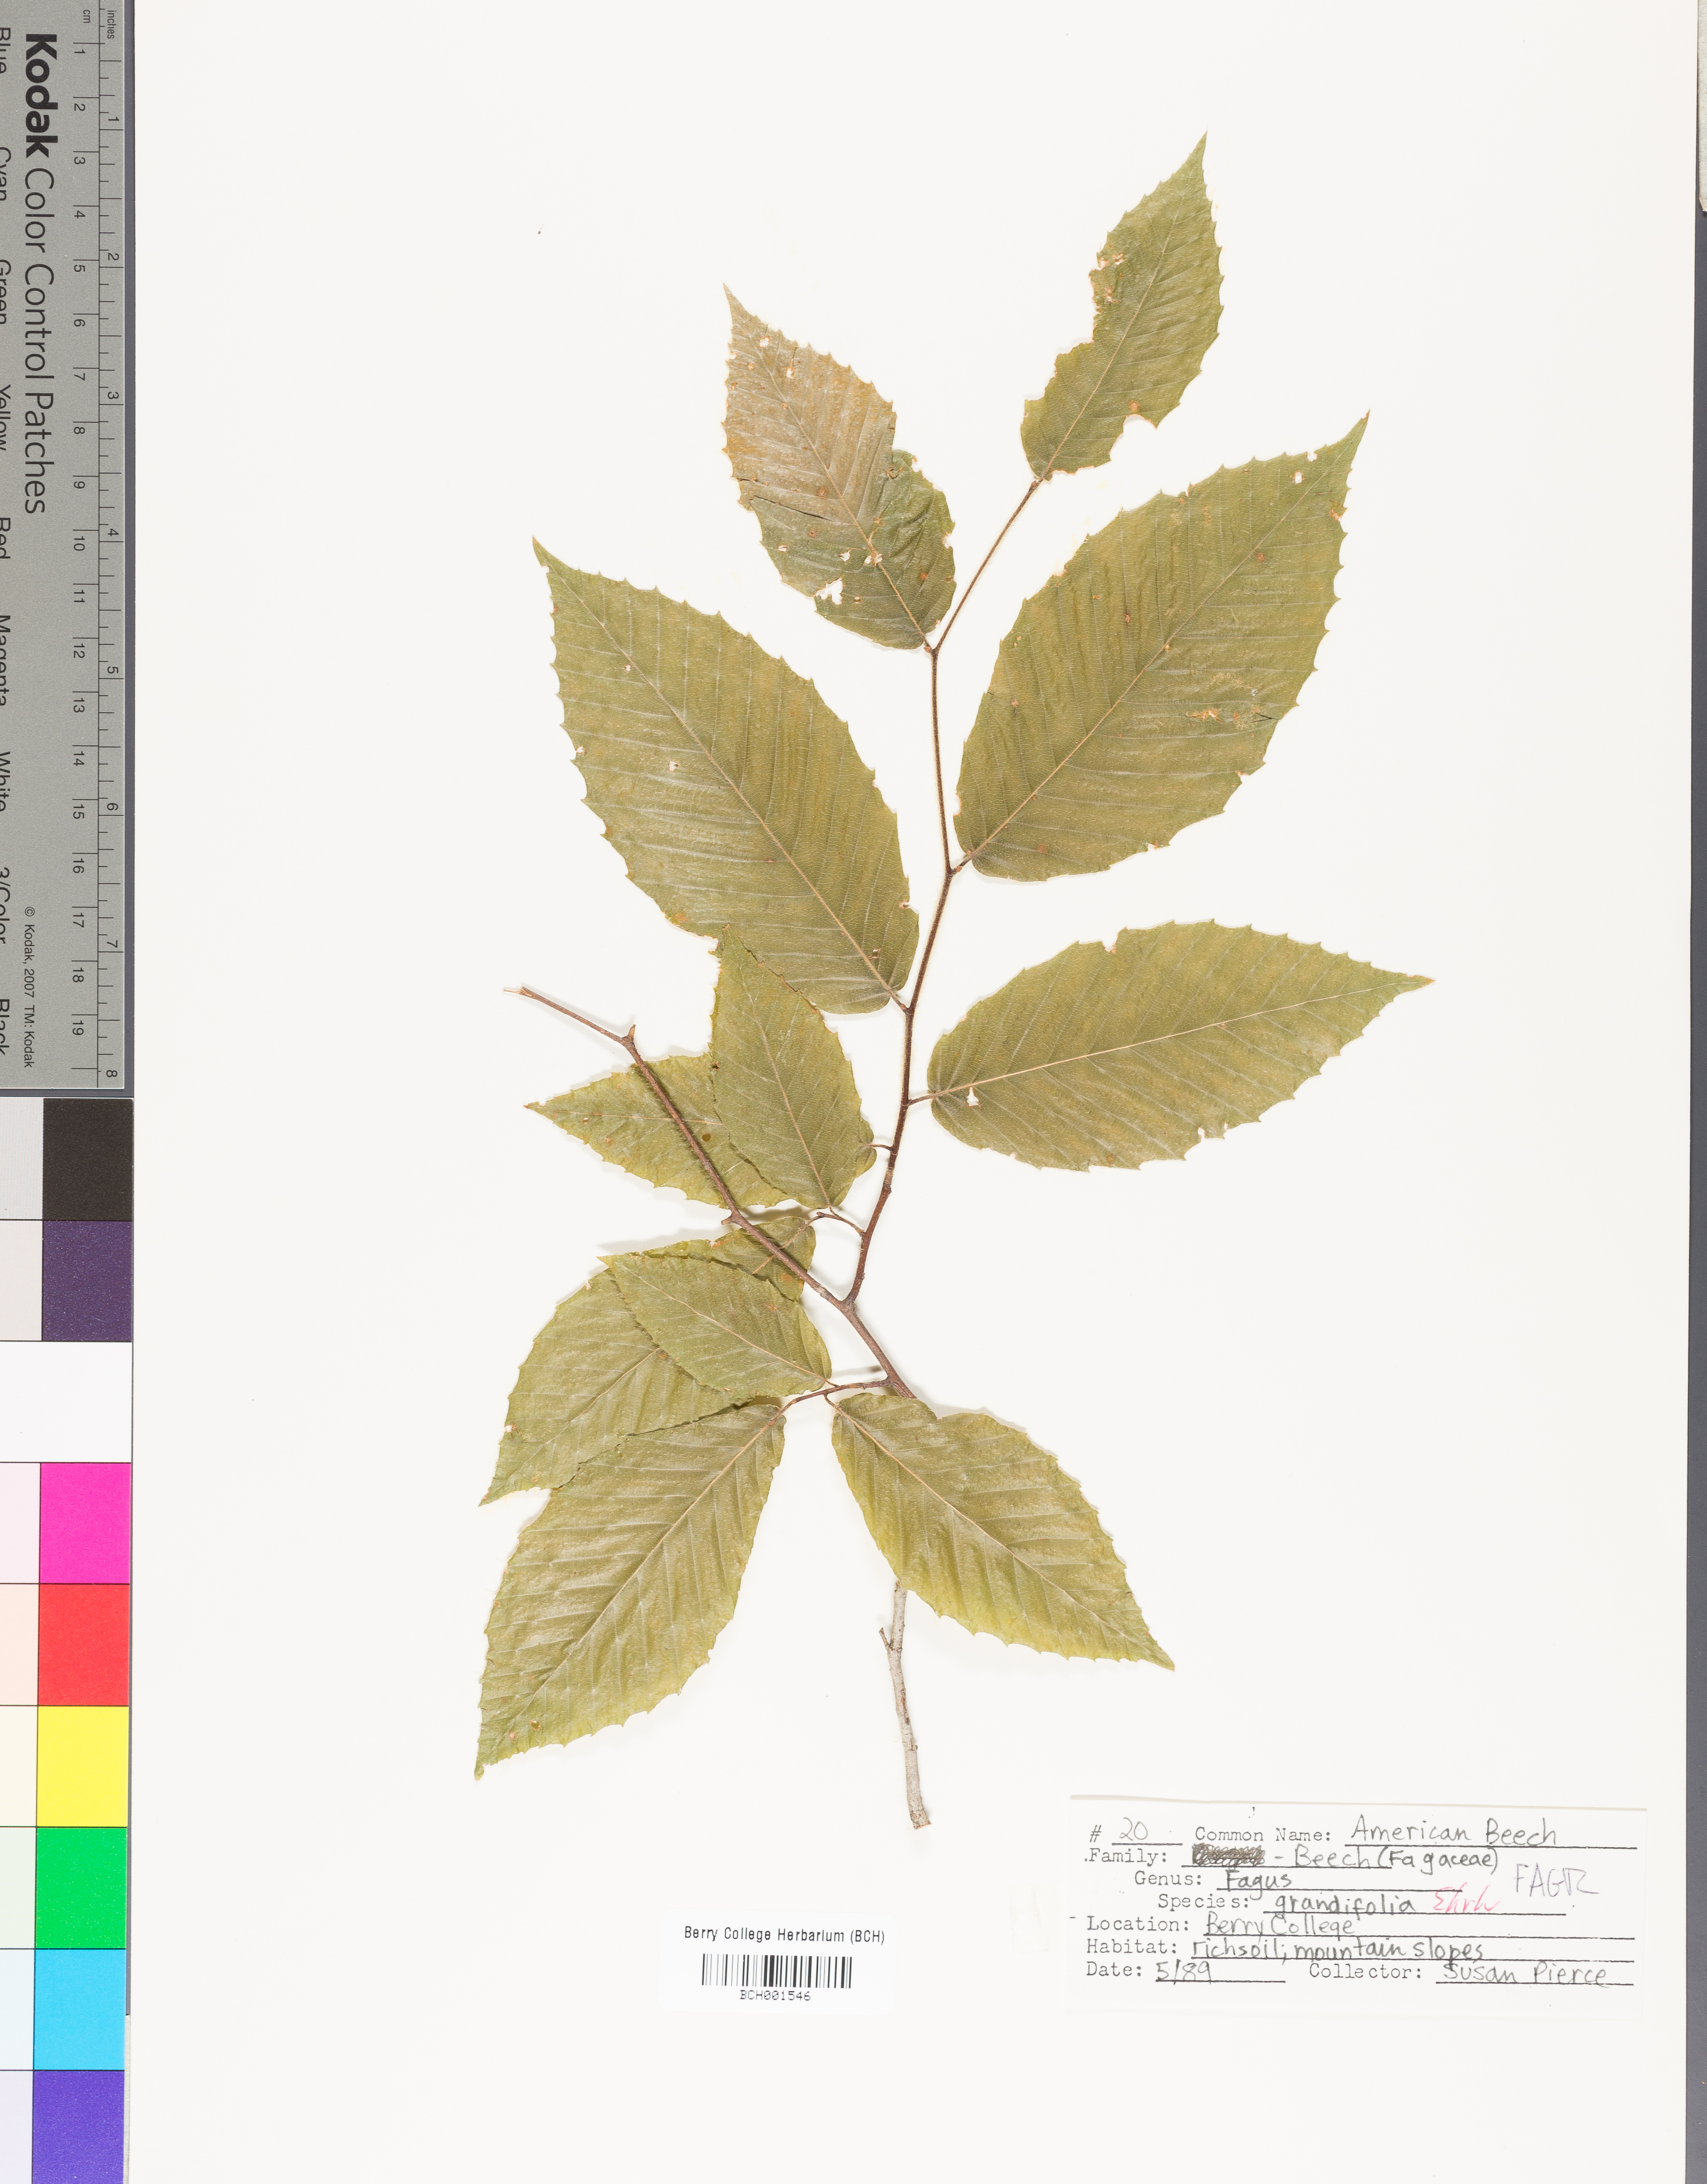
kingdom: Plantae
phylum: Tracheophyta
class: Magnoliopsida
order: Fagales
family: Fagaceae
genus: Fagus
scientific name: Fagus grandifolia
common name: American beech
